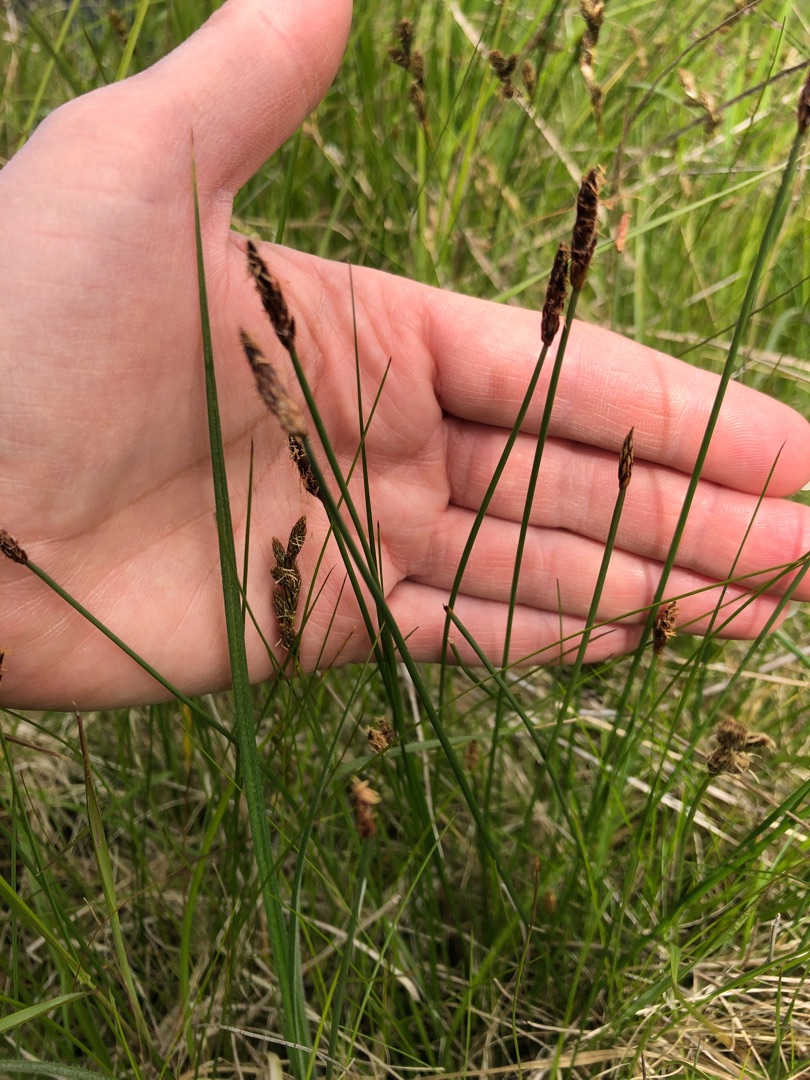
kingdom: Plantae
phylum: Tracheophyta
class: Liliopsida
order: Poales
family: Cyperaceae
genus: Eleocharis
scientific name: Eleocharis uniglumis
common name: Enskællet sumpstrå
